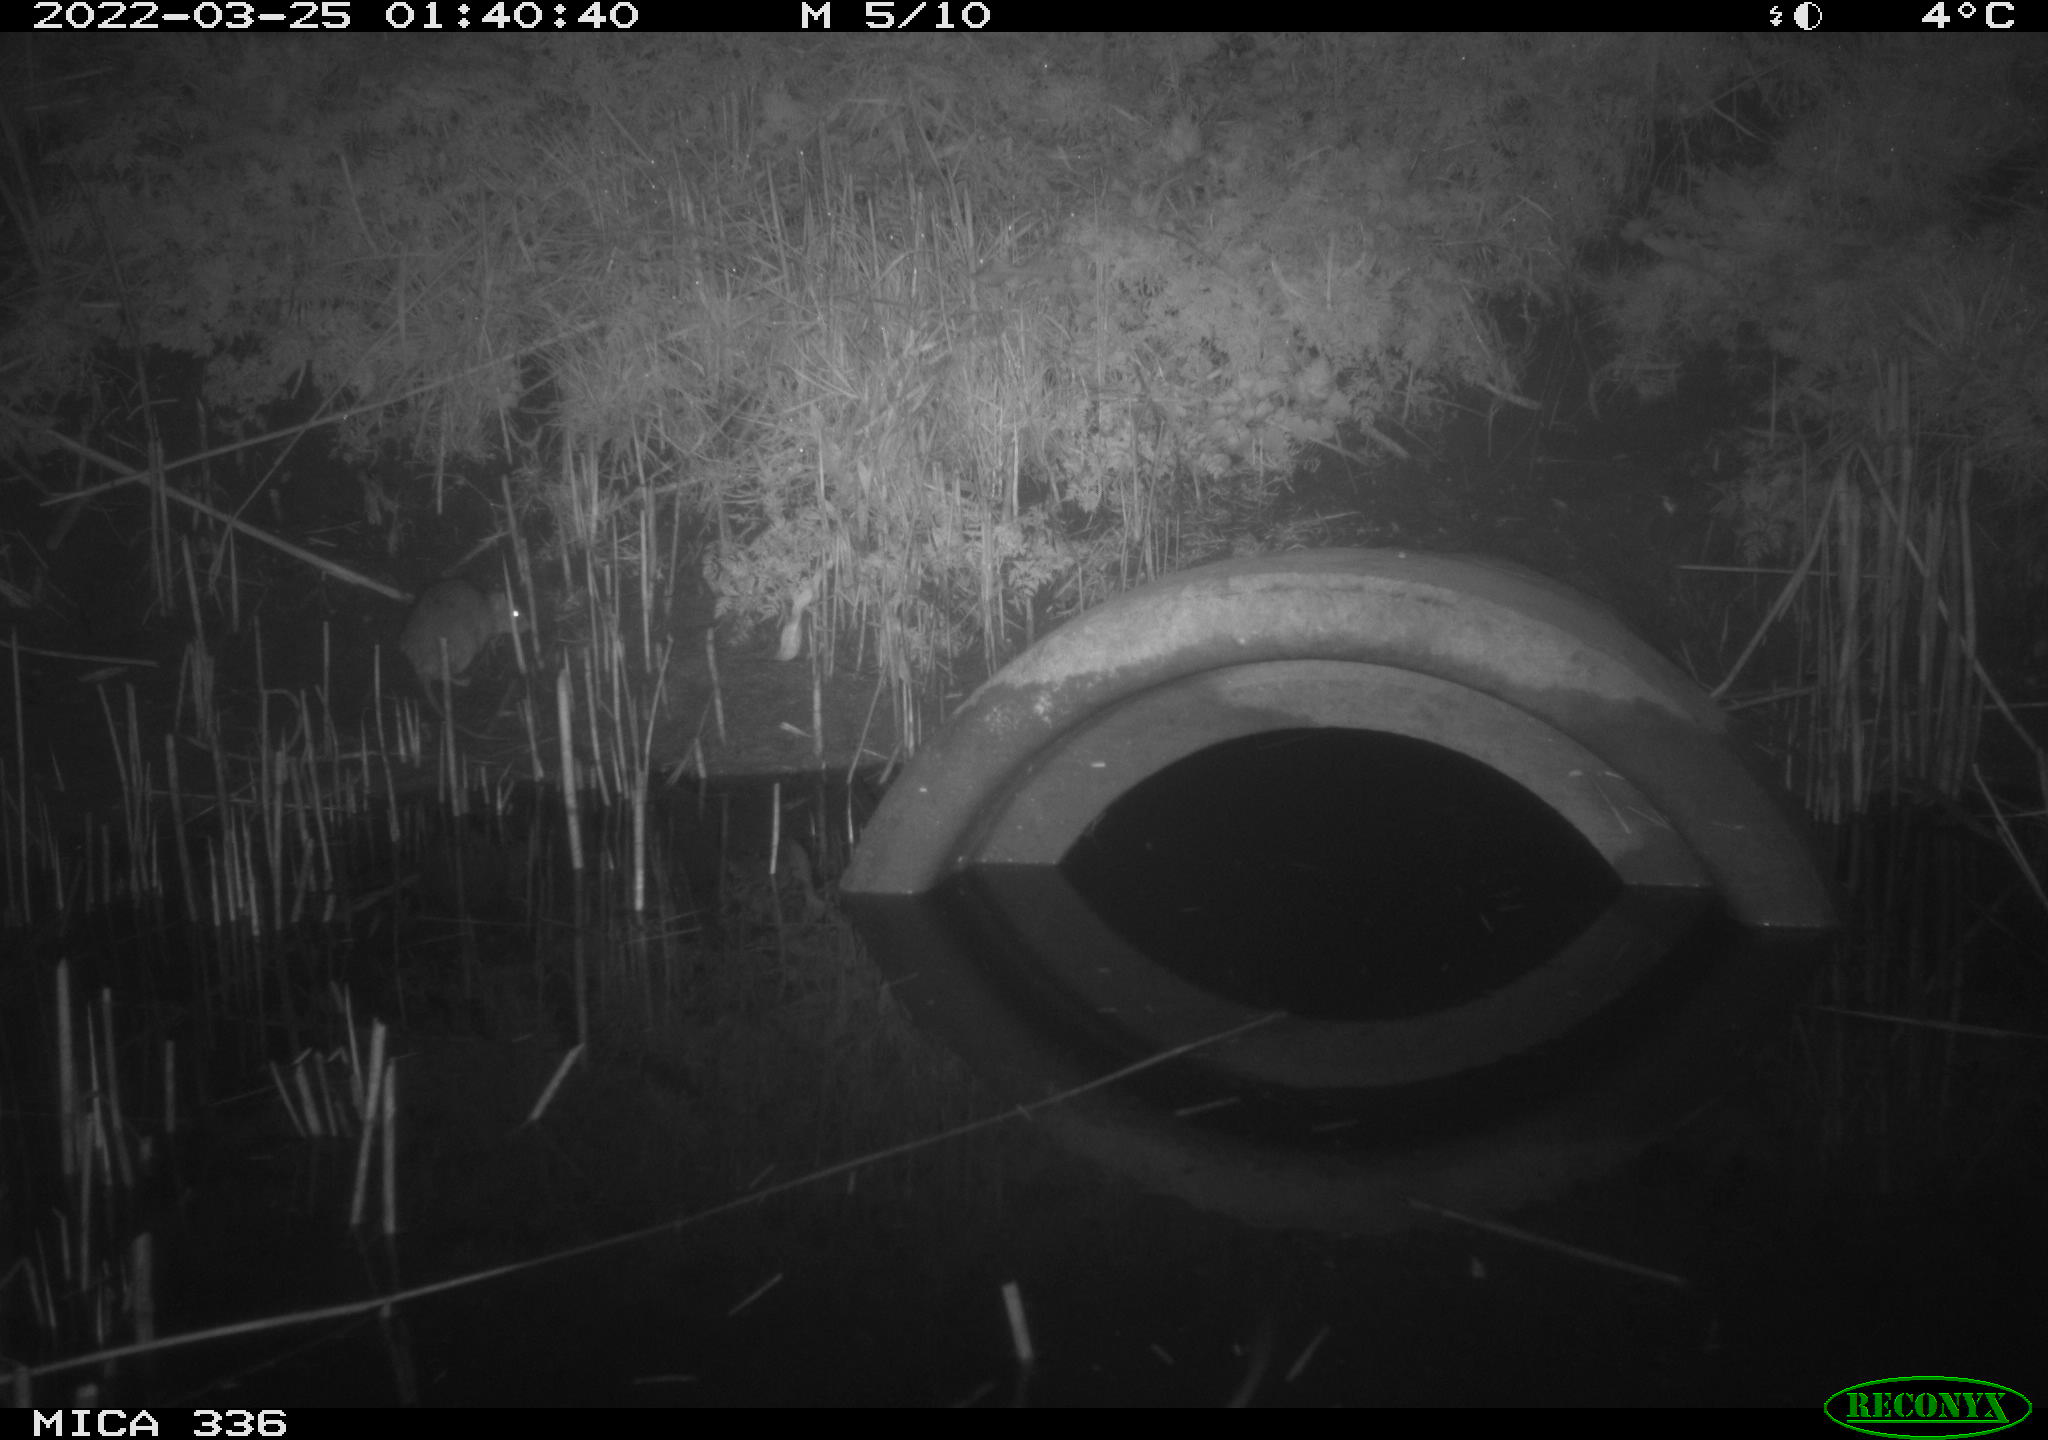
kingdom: Animalia
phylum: Chordata
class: Mammalia
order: Rodentia
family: Muridae
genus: Rattus
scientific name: Rattus norvegicus
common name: Brown rat
